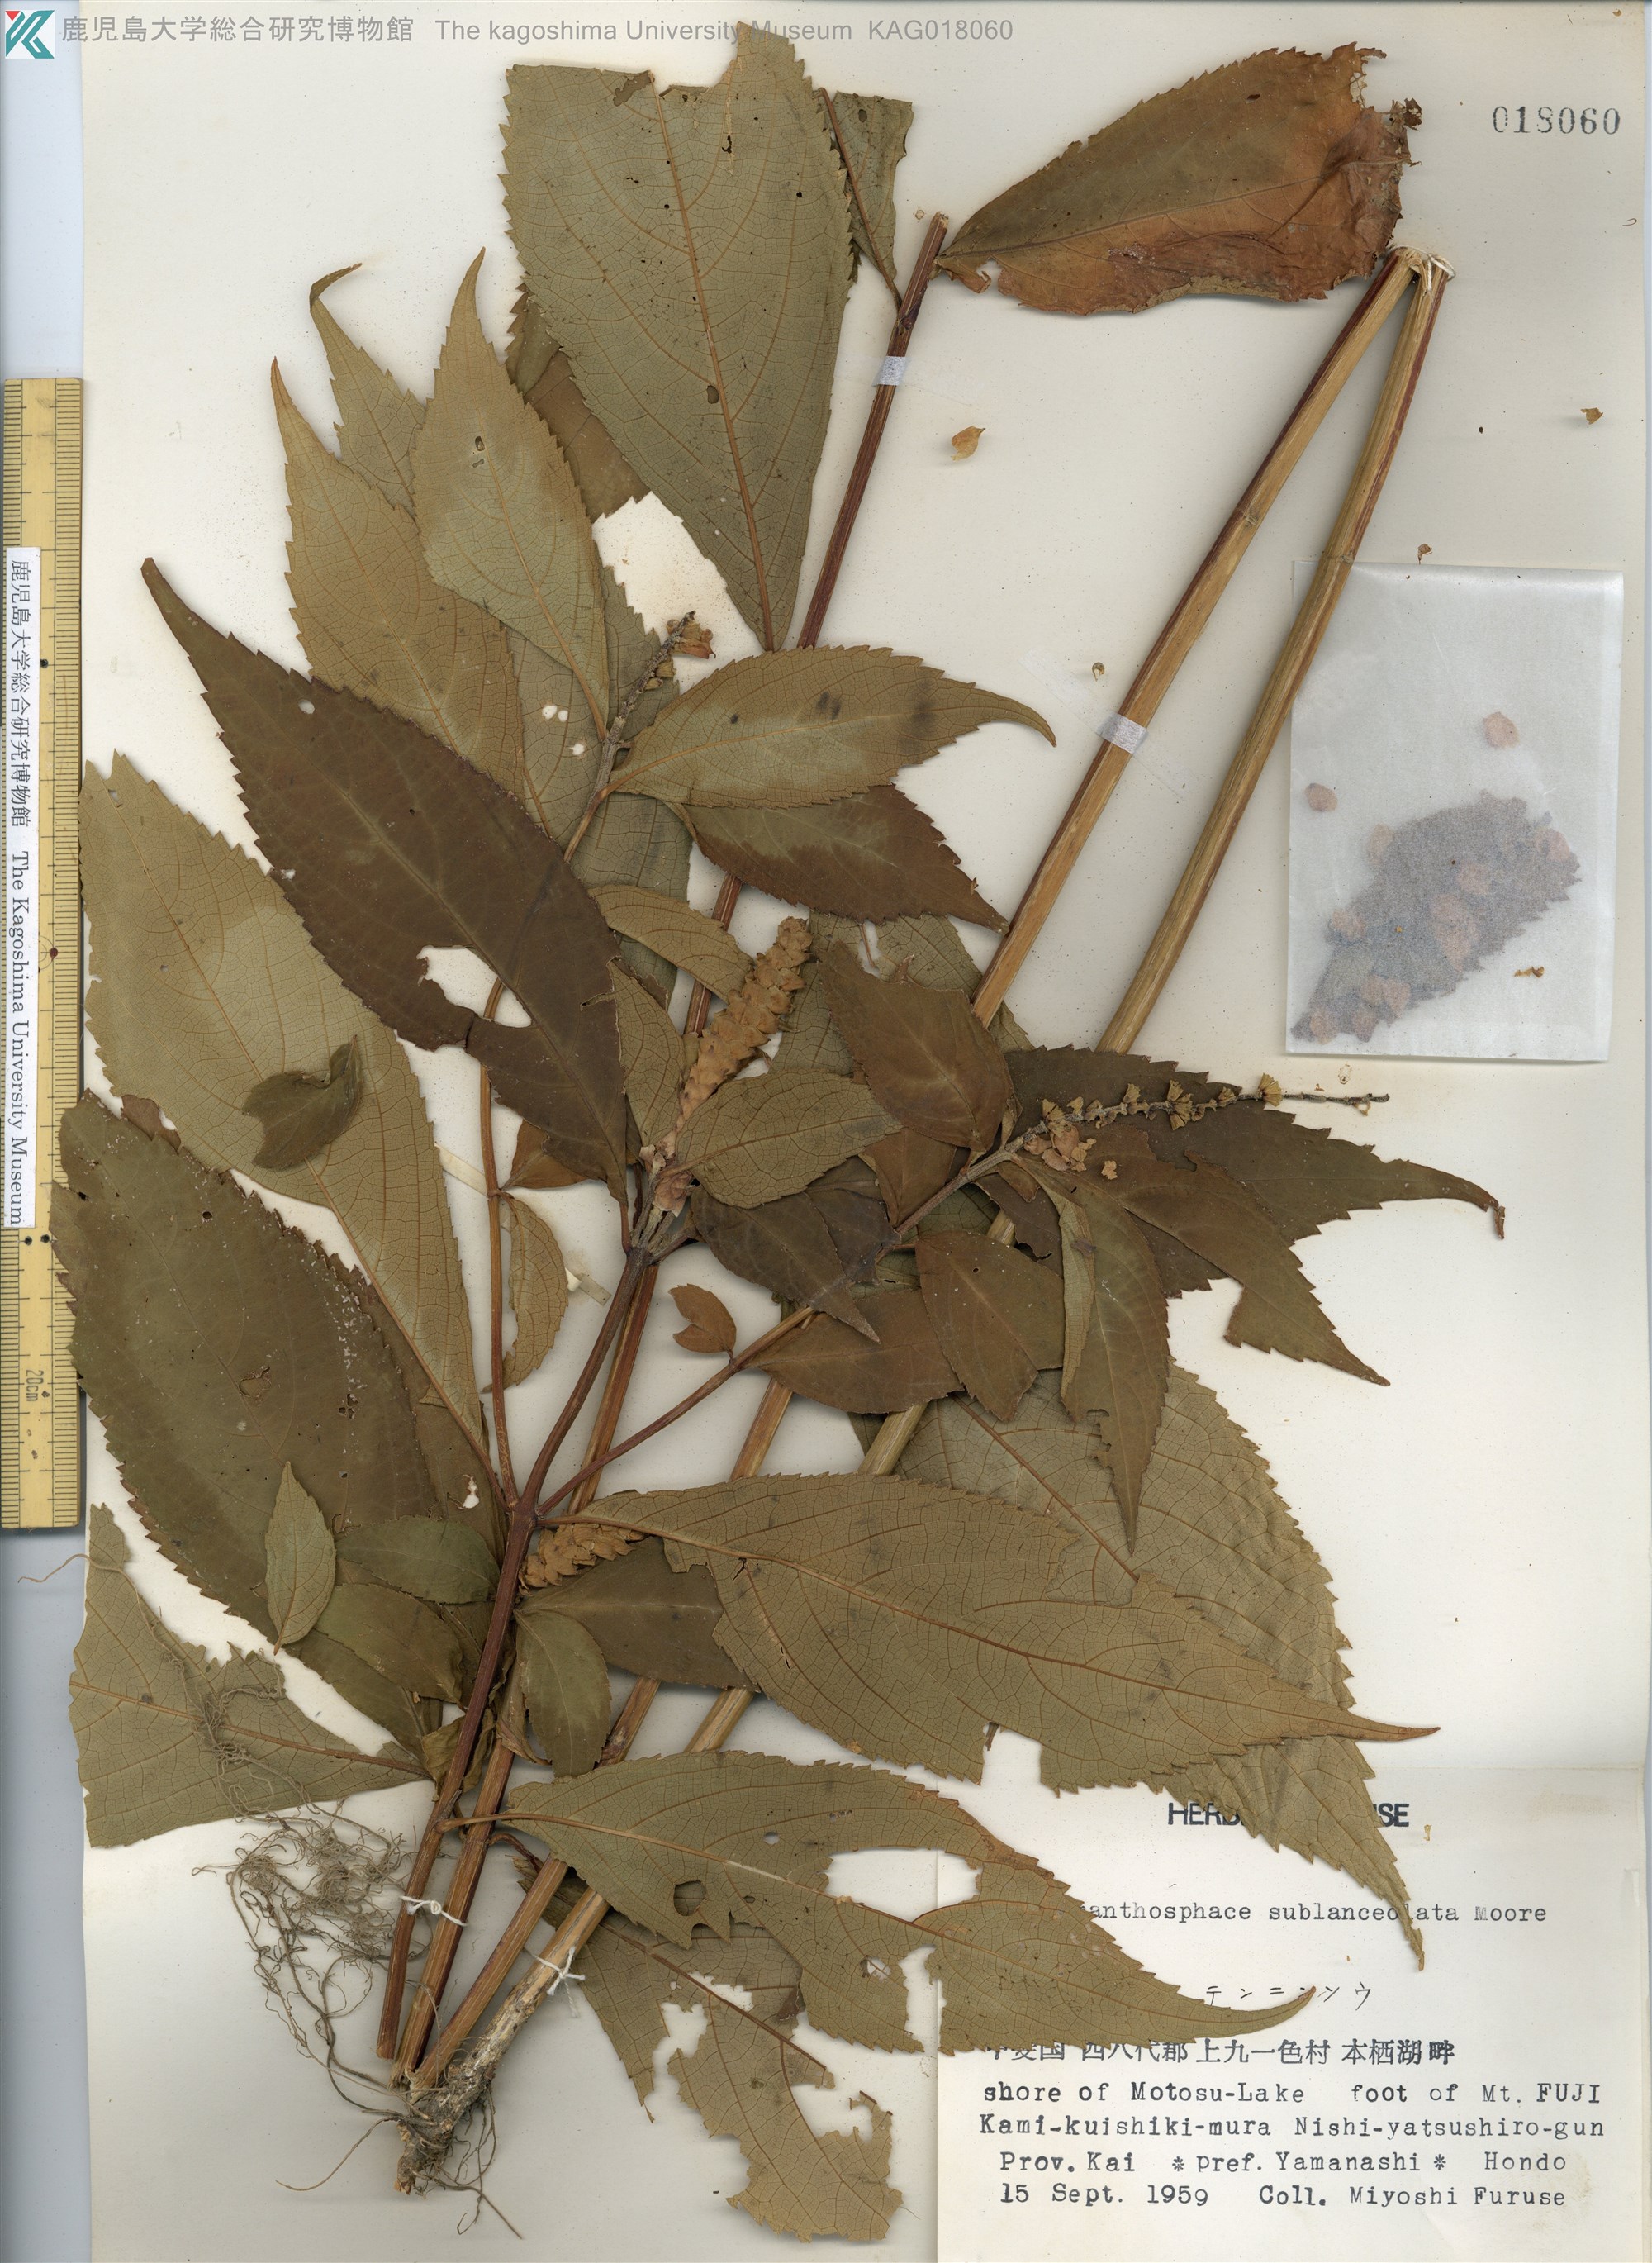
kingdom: Plantae
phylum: Tracheophyta
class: Magnoliopsida
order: Lamiales
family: Lamiaceae
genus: Comanthosphace
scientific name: Comanthosphace japonica
